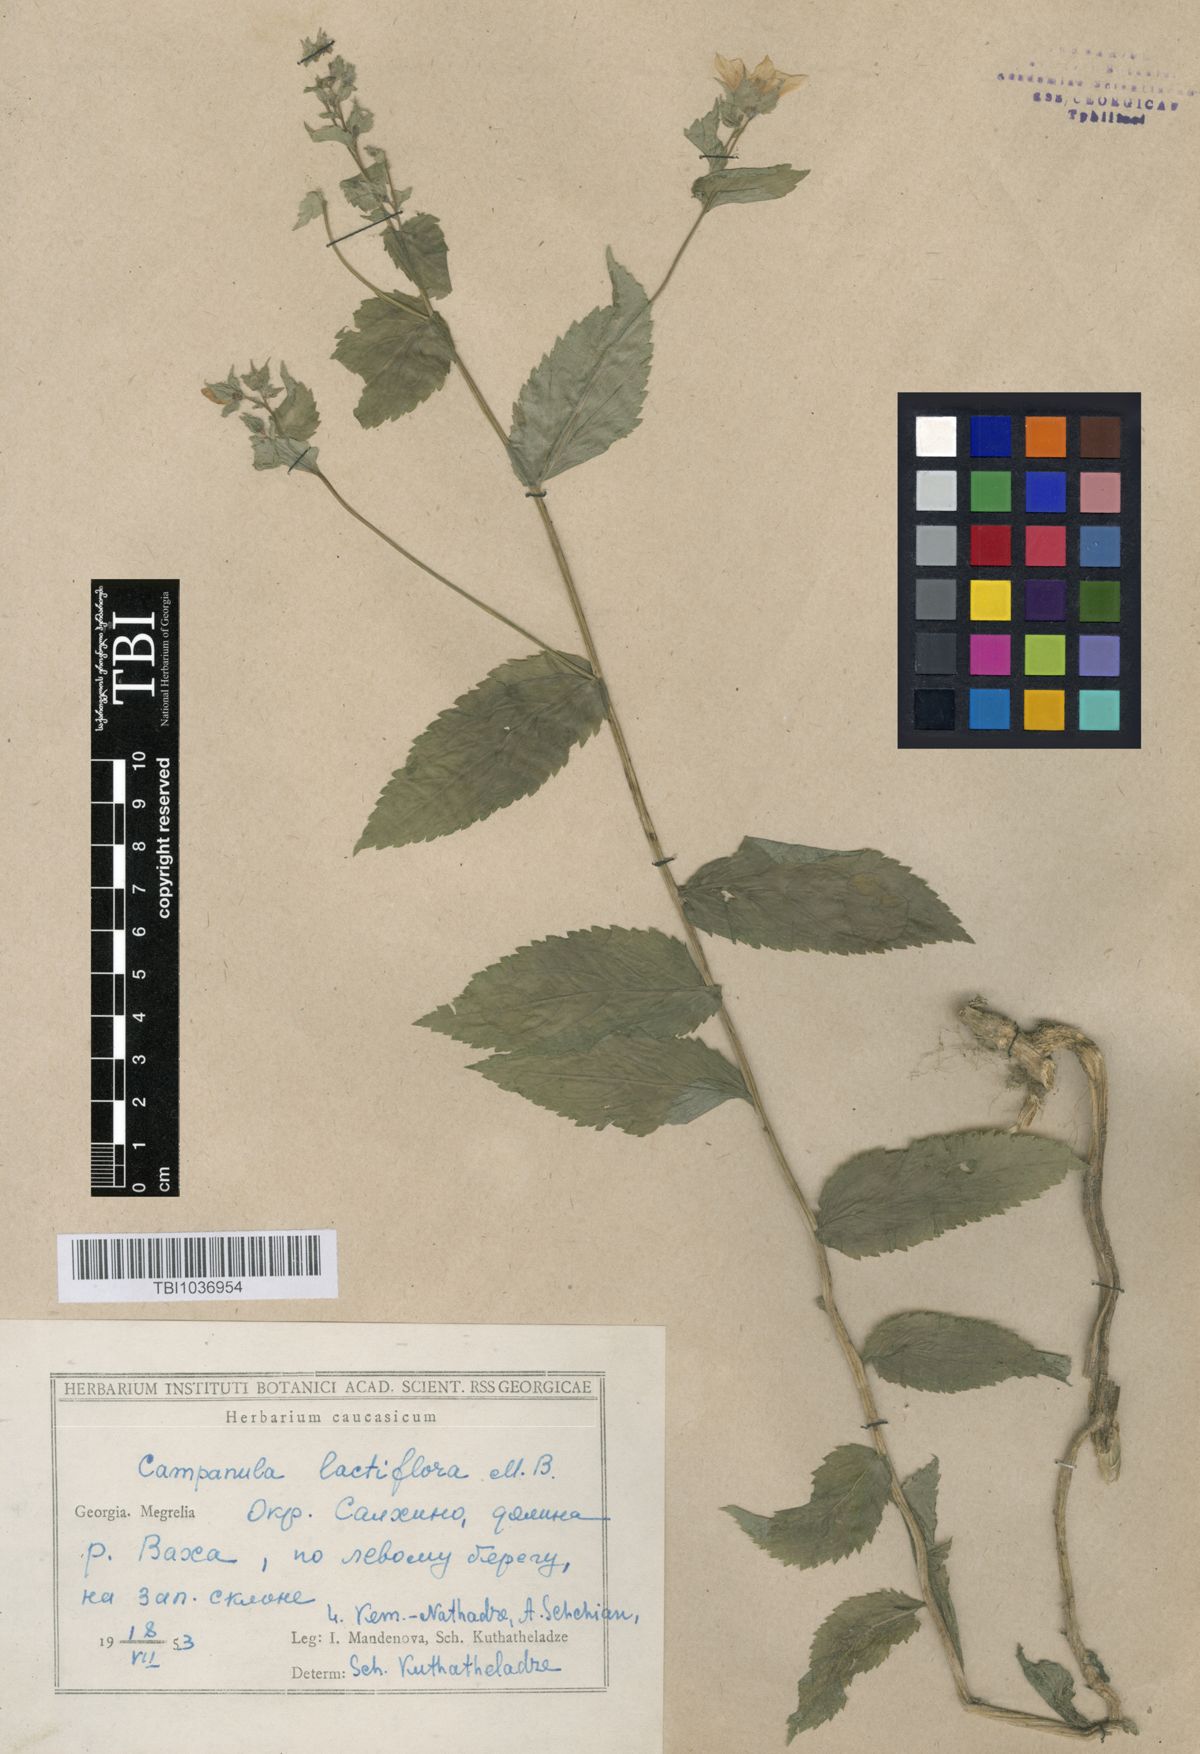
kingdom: Plantae
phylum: Tracheophyta
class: Magnoliopsida
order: Asterales
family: Campanulaceae
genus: Campanula
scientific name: Campanula lactiflora
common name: Milky bellflower
